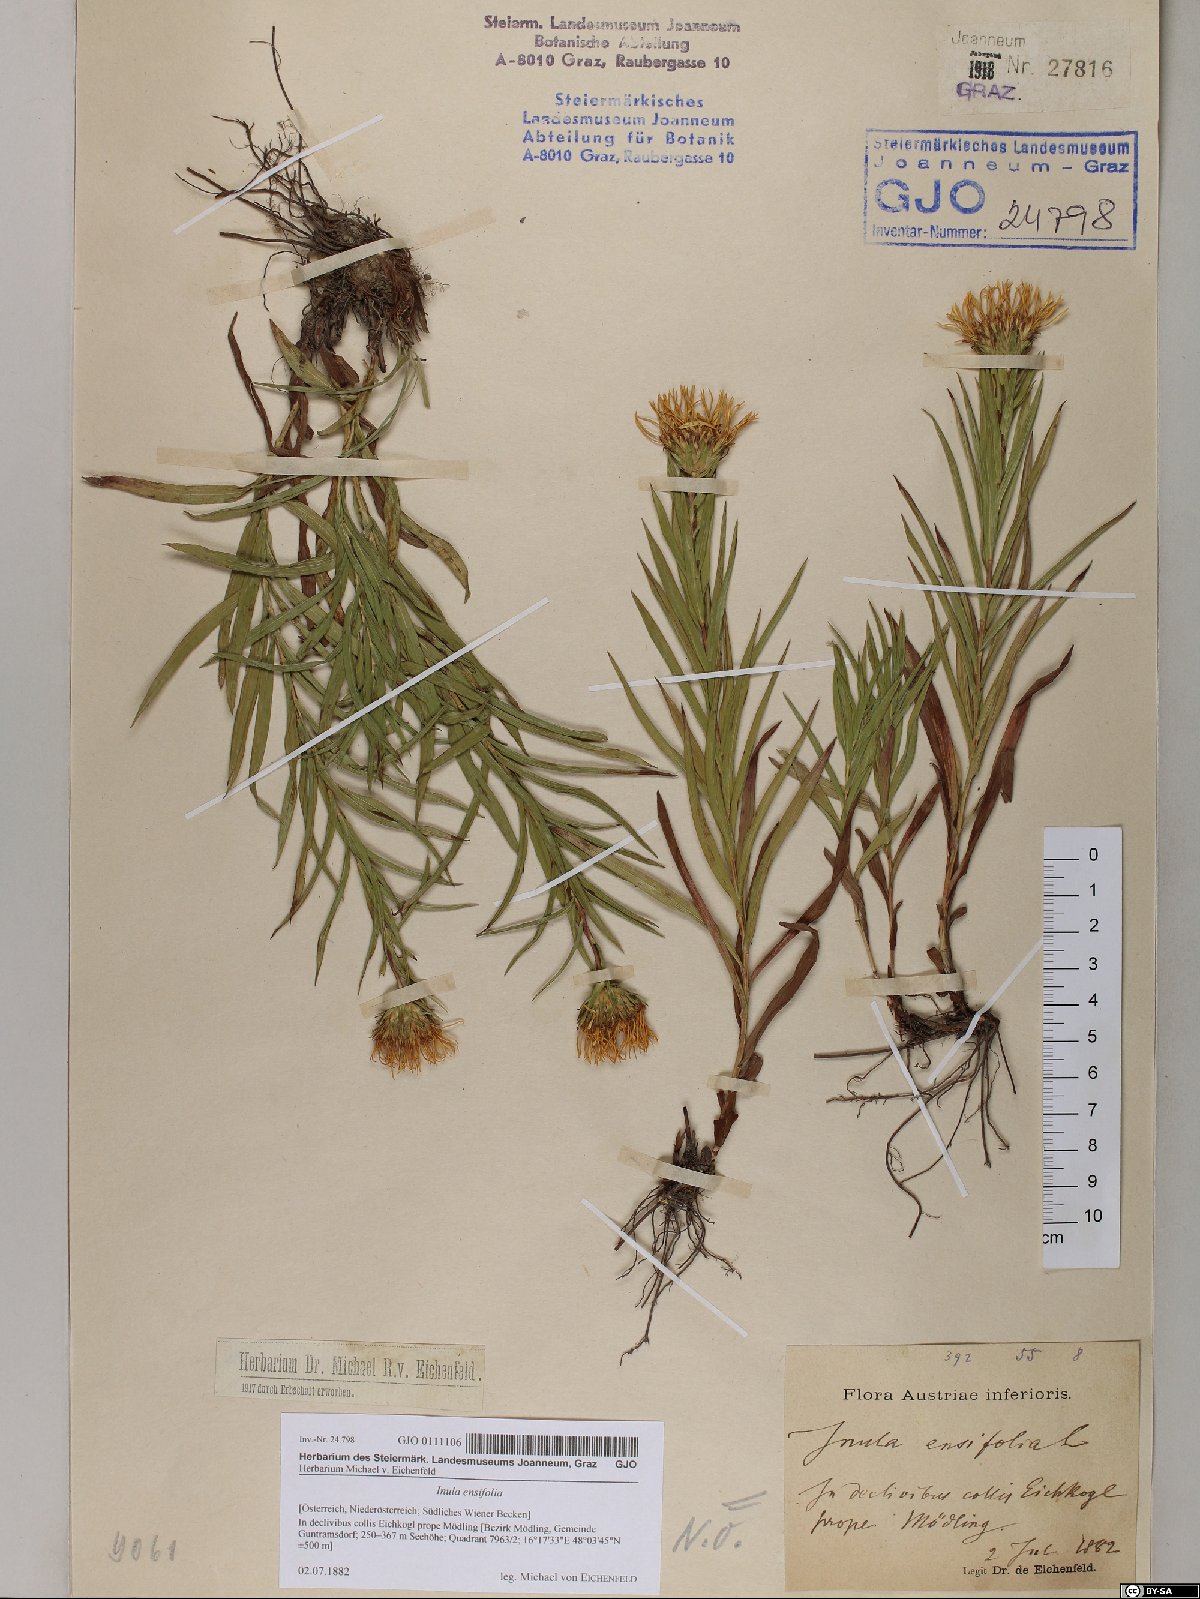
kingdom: Plantae
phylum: Tracheophyta
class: Magnoliopsida
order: Asterales
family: Asteraceae
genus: Pentanema
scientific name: Pentanema ensifolium
